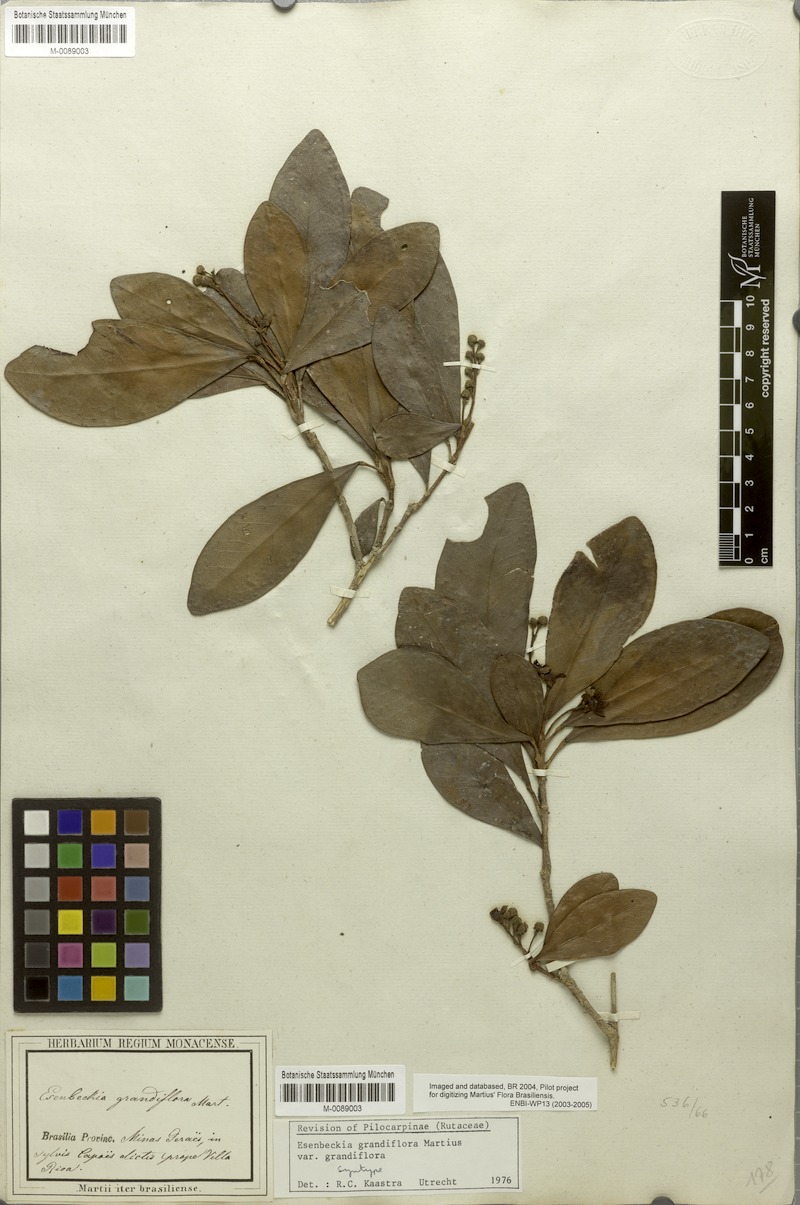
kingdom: Plantae
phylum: Tracheophyta
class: Magnoliopsida
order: Sapindales
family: Rutaceae
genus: Esenbeckia
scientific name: Esenbeckia grandiflora
